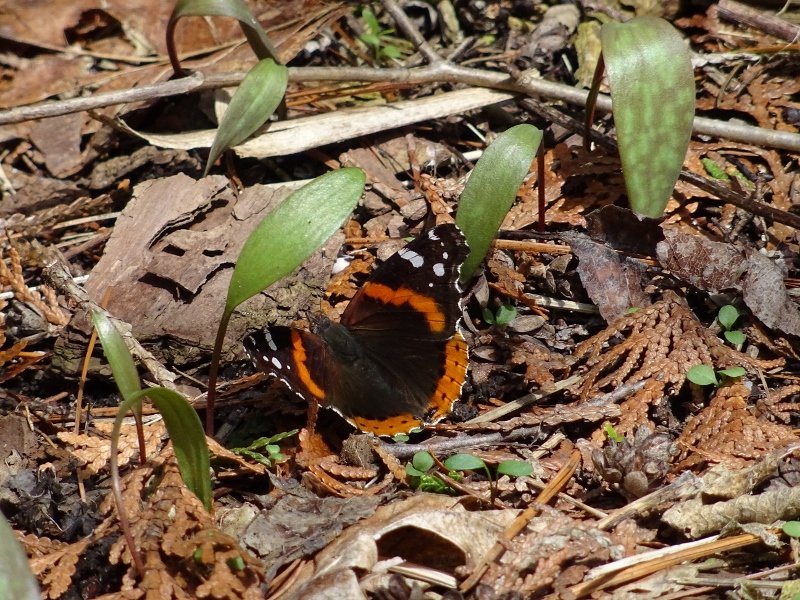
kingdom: Animalia
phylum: Arthropoda
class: Insecta
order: Lepidoptera
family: Nymphalidae
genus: Vanessa
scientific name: Vanessa atalanta
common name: Red Admiral
